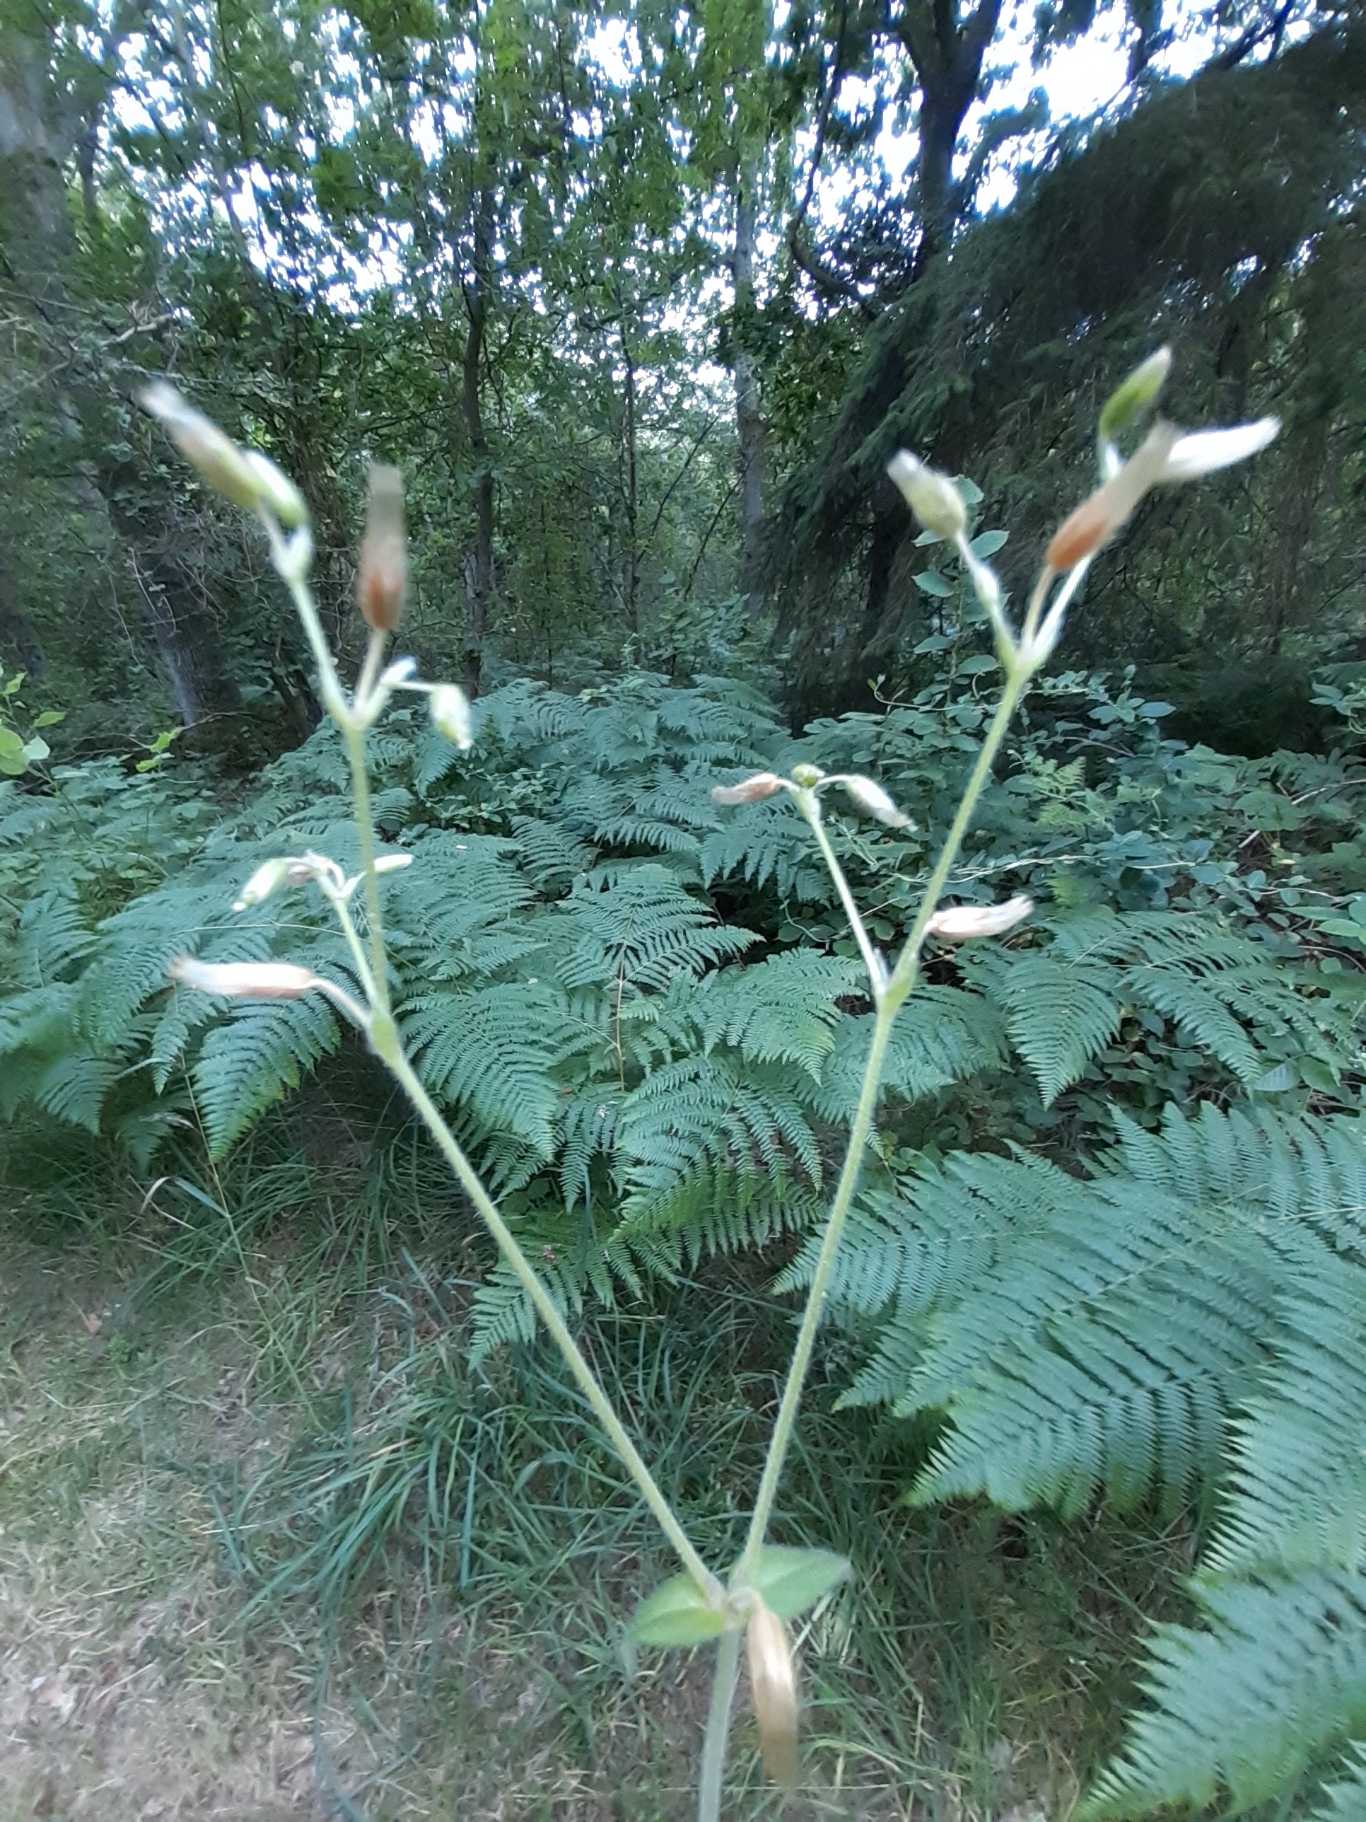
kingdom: Plantae
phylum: Tracheophyta
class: Magnoliopsida
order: Caryophyllales
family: Caryophyllaceae
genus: Cerastium
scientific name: Cerastium fontanum
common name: Almindelig hønsetarm
